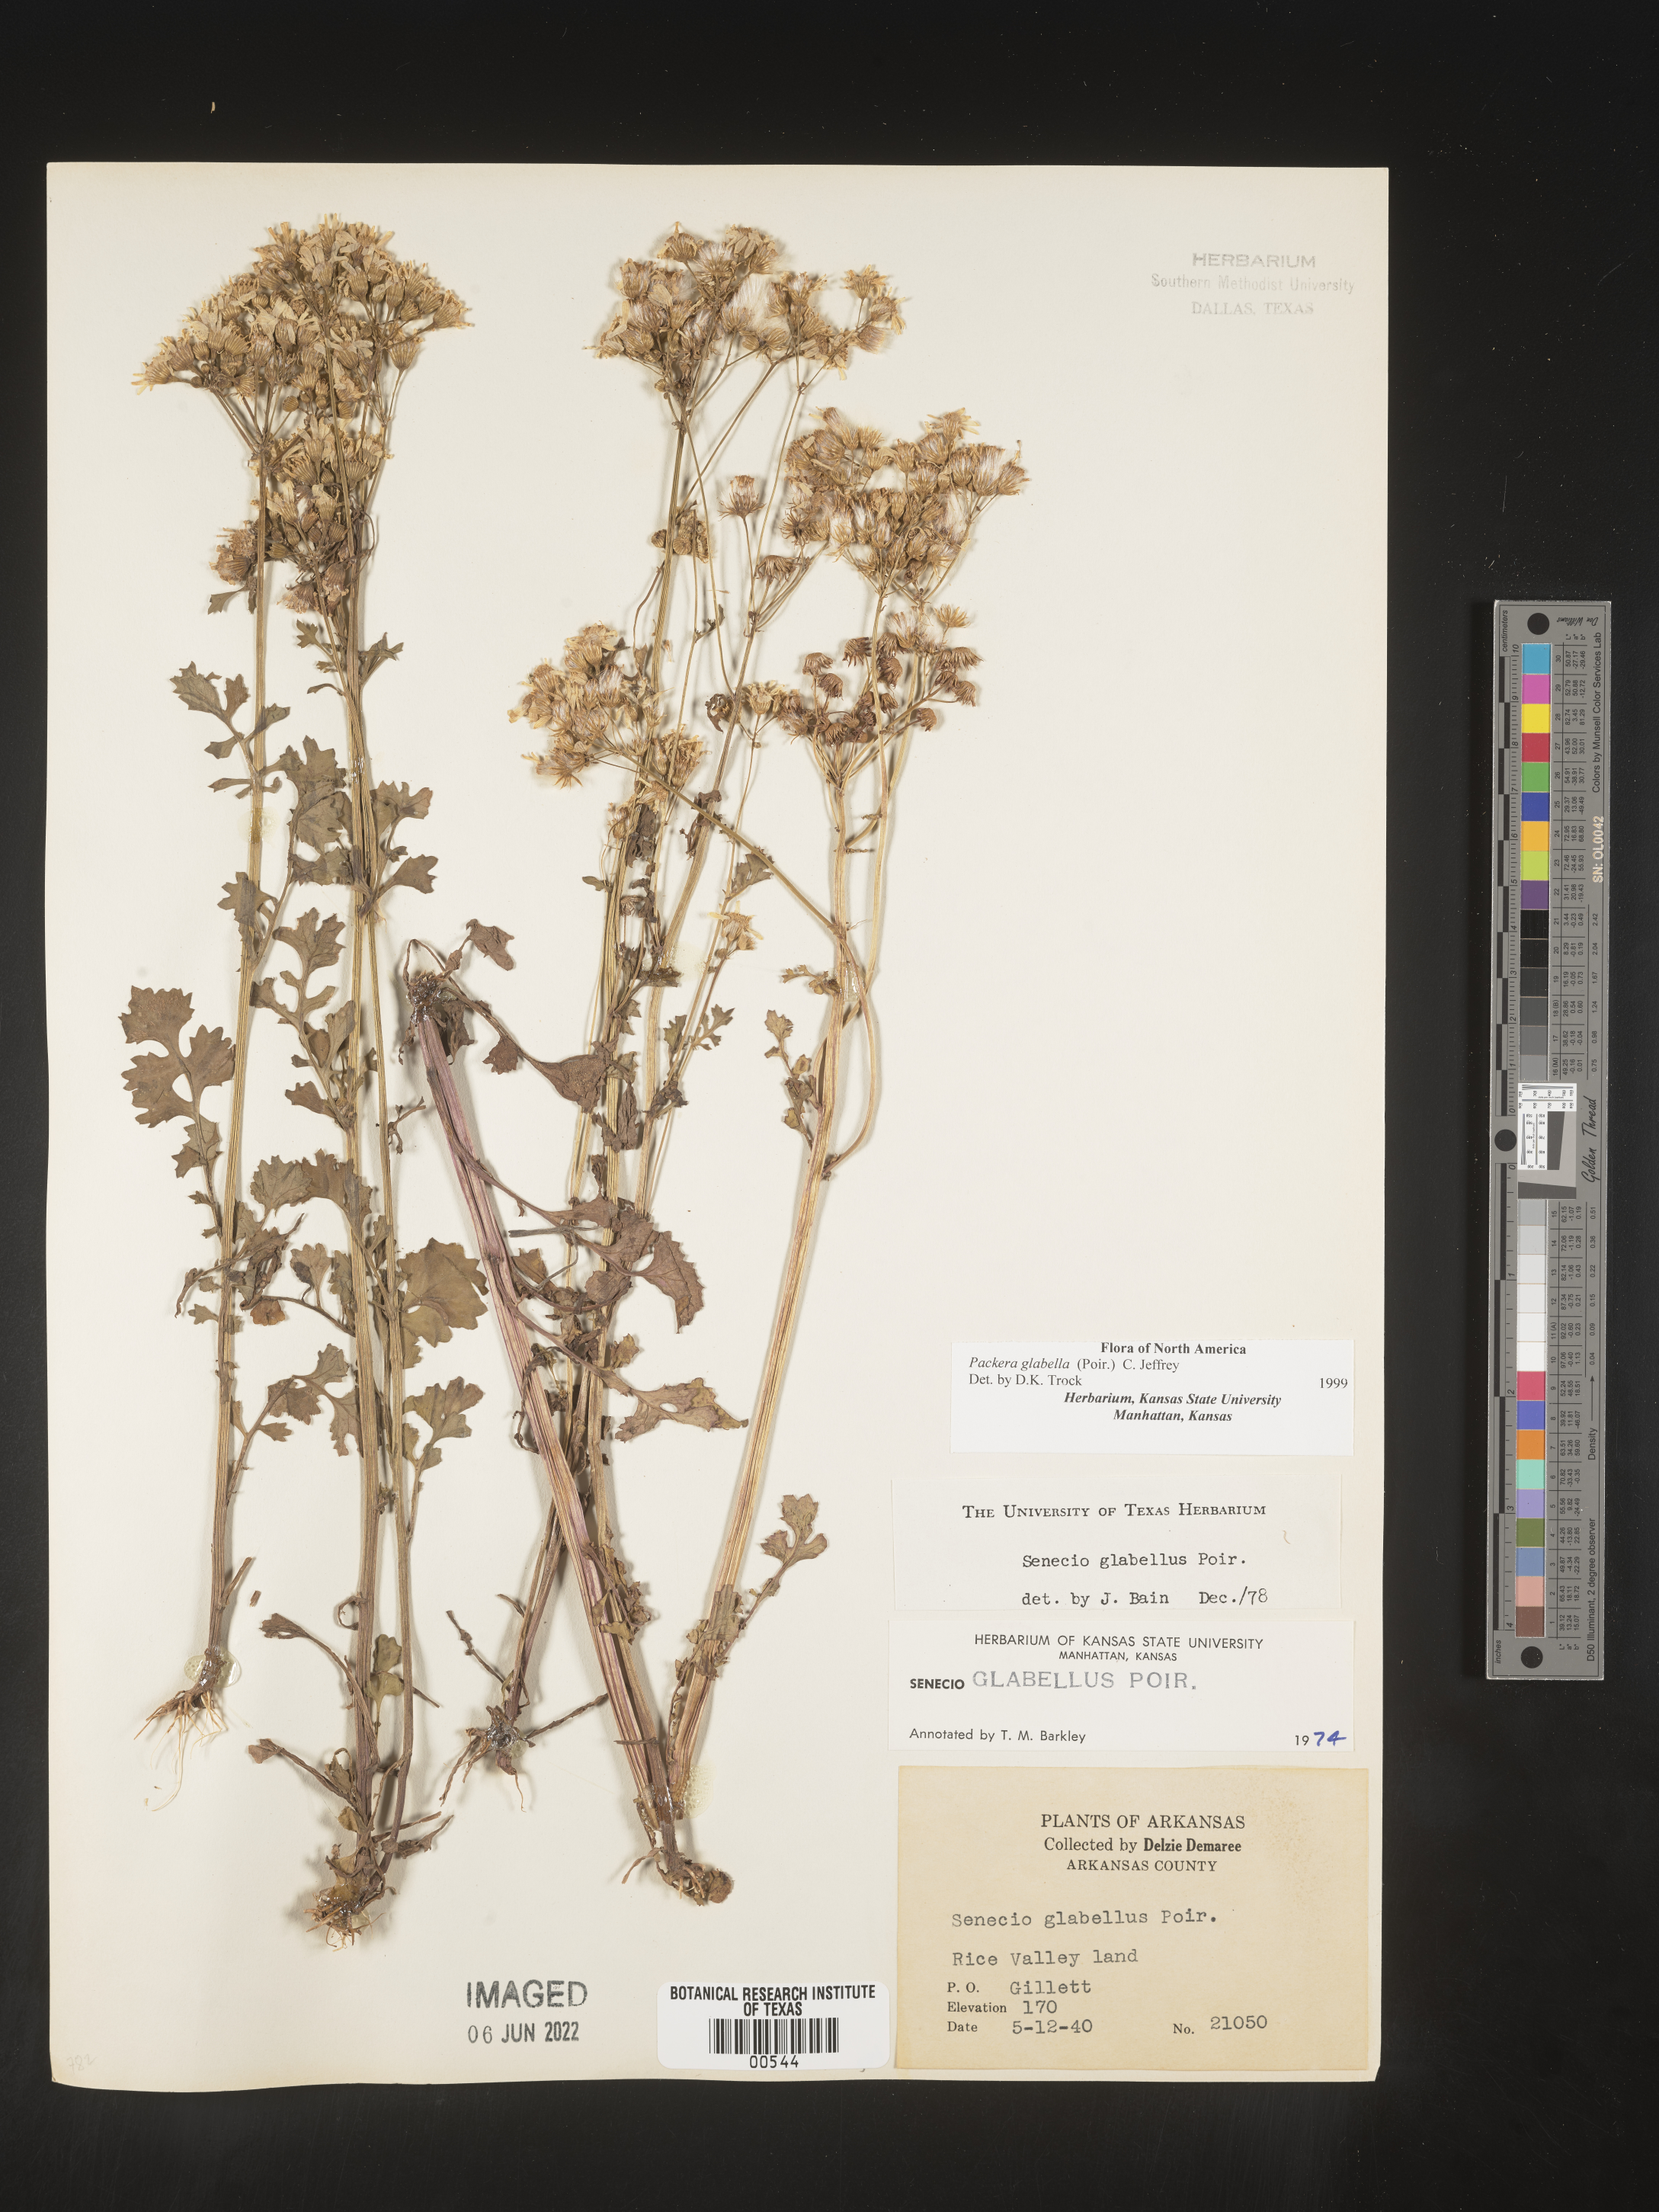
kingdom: Plantae
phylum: Tracheophyta
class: Magnoliopsida
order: Asterales
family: Asteraceae
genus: Packera
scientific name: Packera glabella
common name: Butterweed
